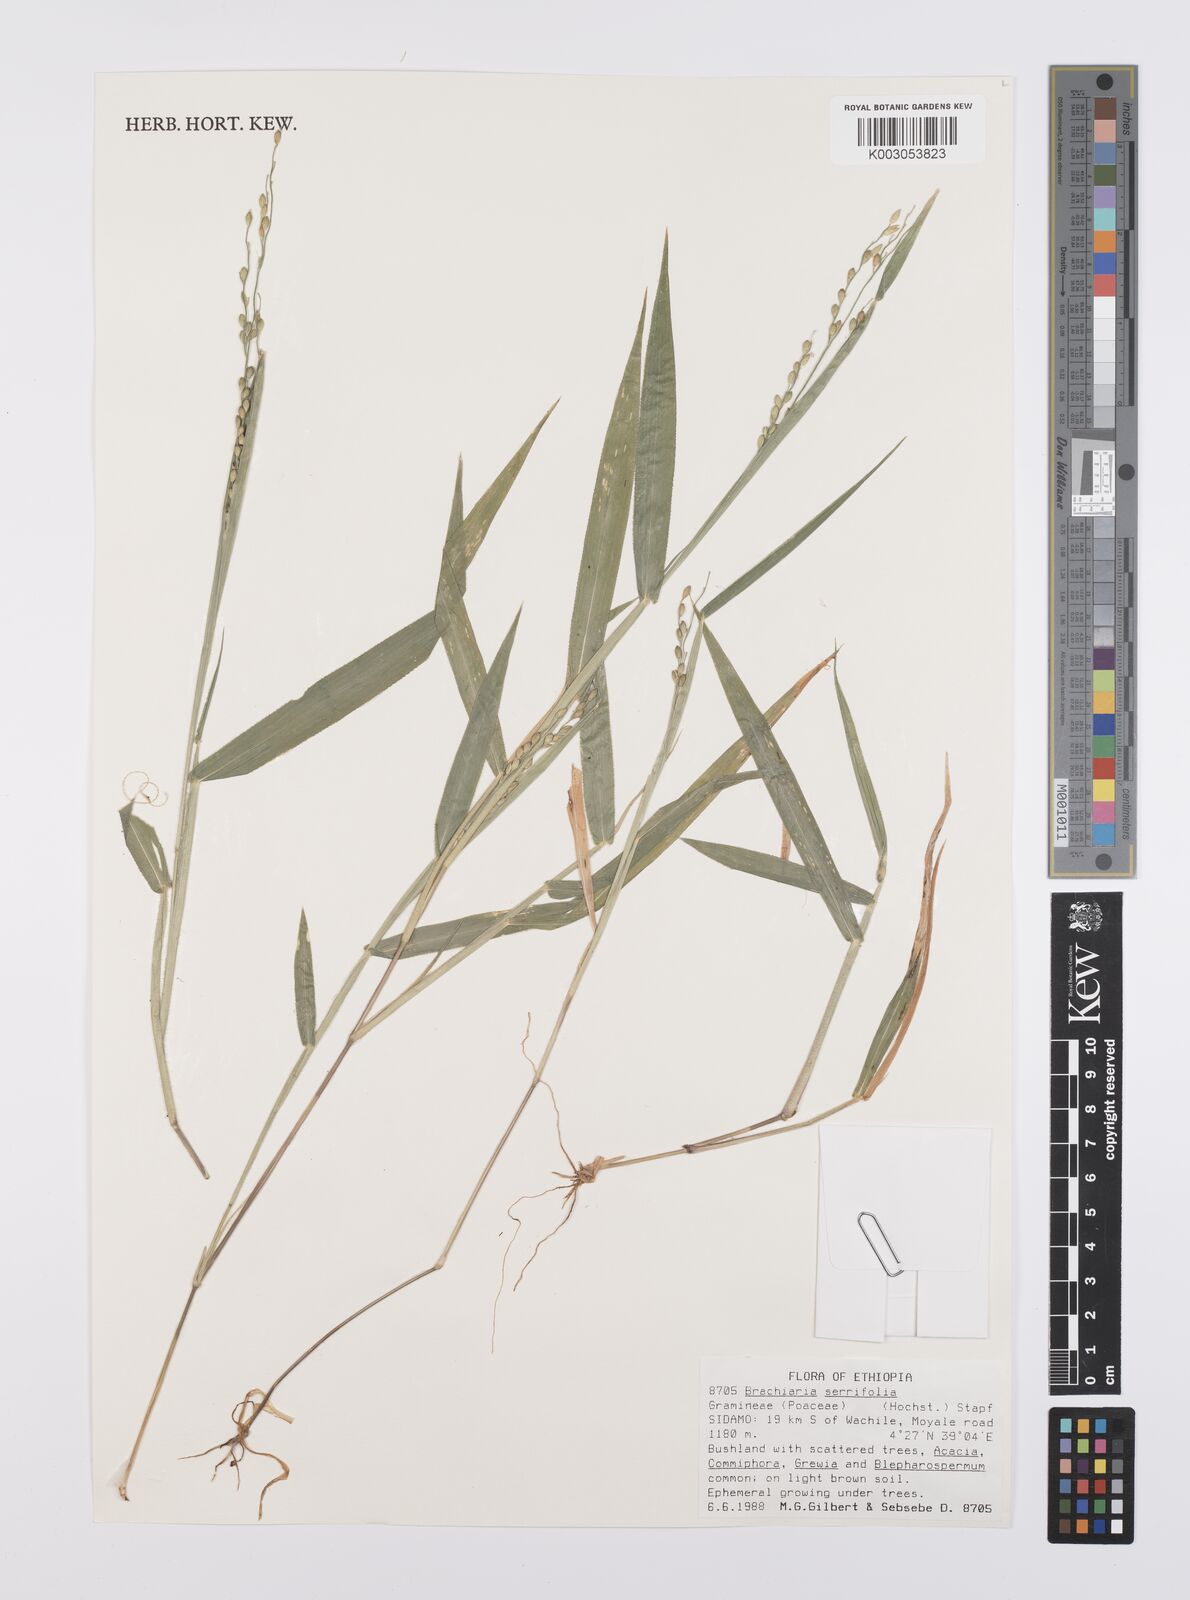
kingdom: Plantae
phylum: Tracheophyta
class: Liliopsida
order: Poales
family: Poaceae
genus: Urochloa
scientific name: Urochloa serrifolia
